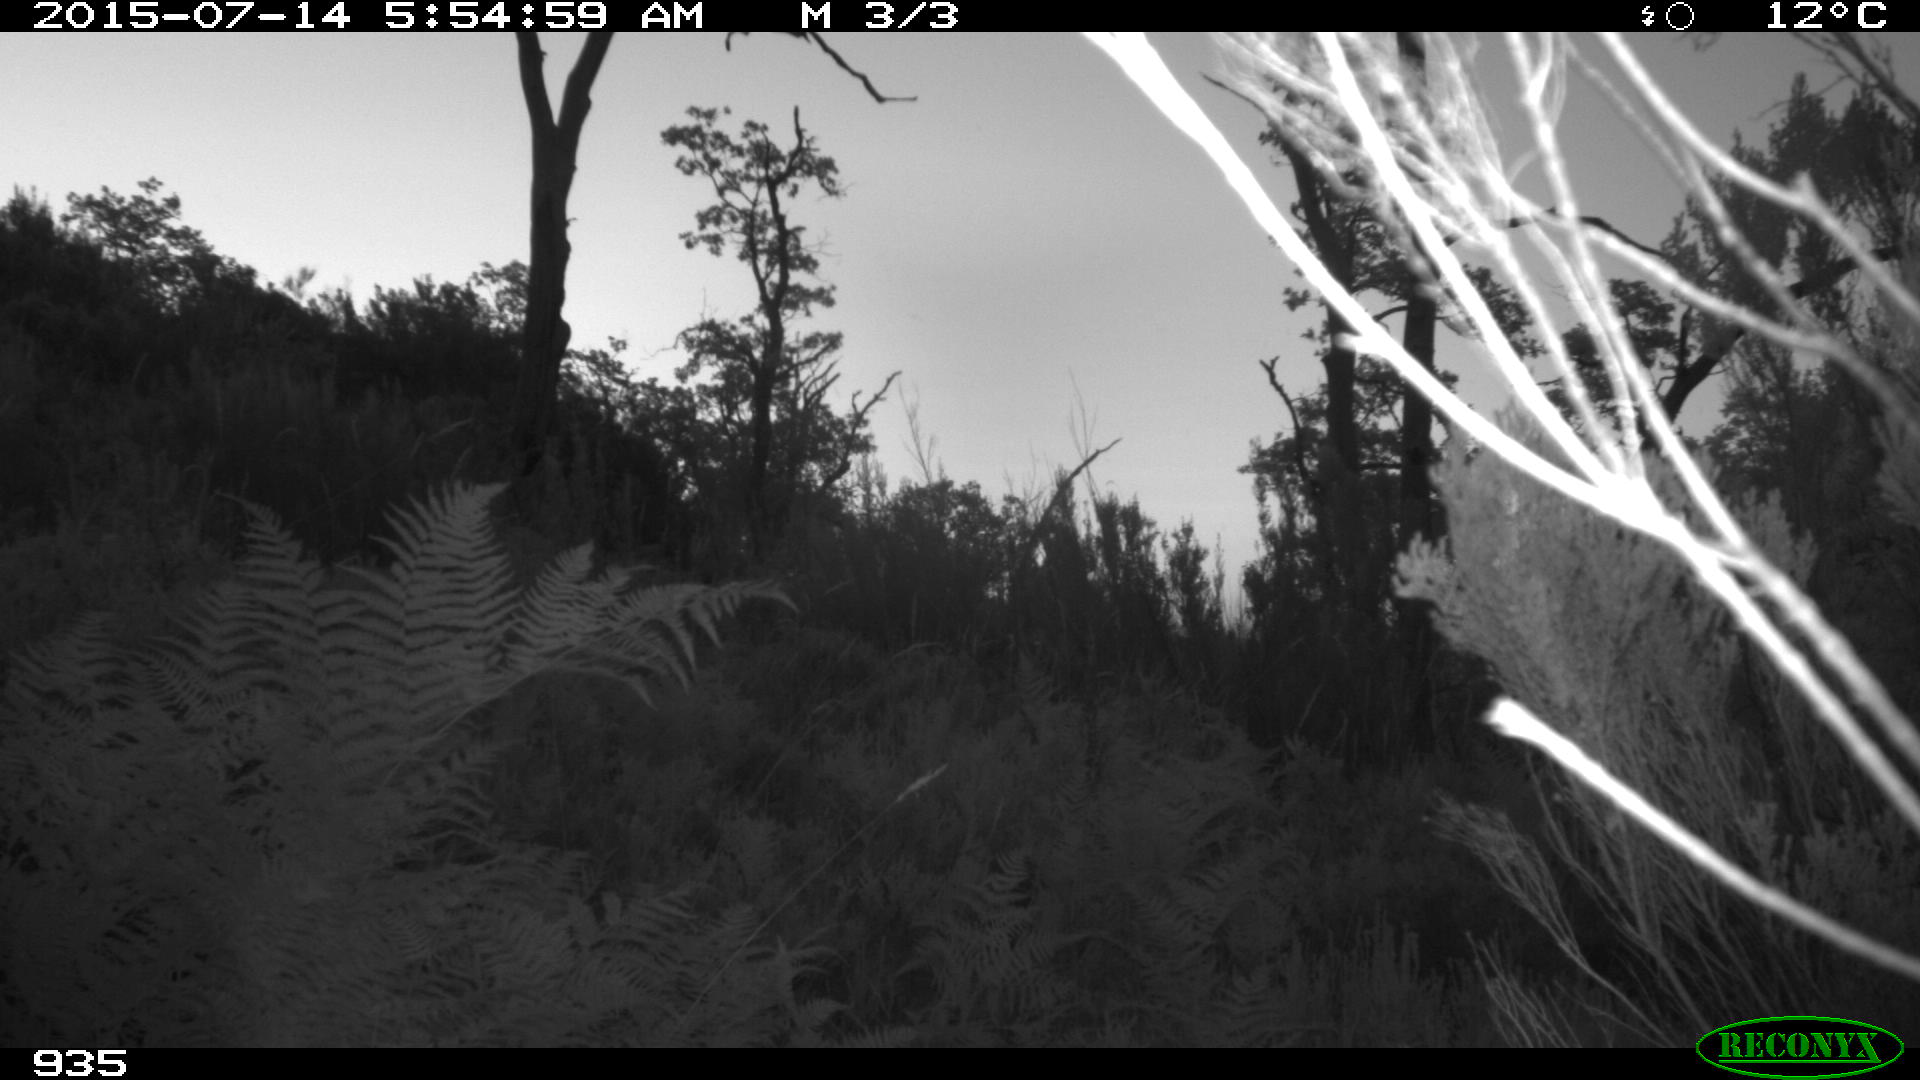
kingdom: Animalia
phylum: Chordata
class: Mammalia
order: Perissodactyla
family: Equidae
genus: Equus
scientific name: Equus caballus
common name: Horse
